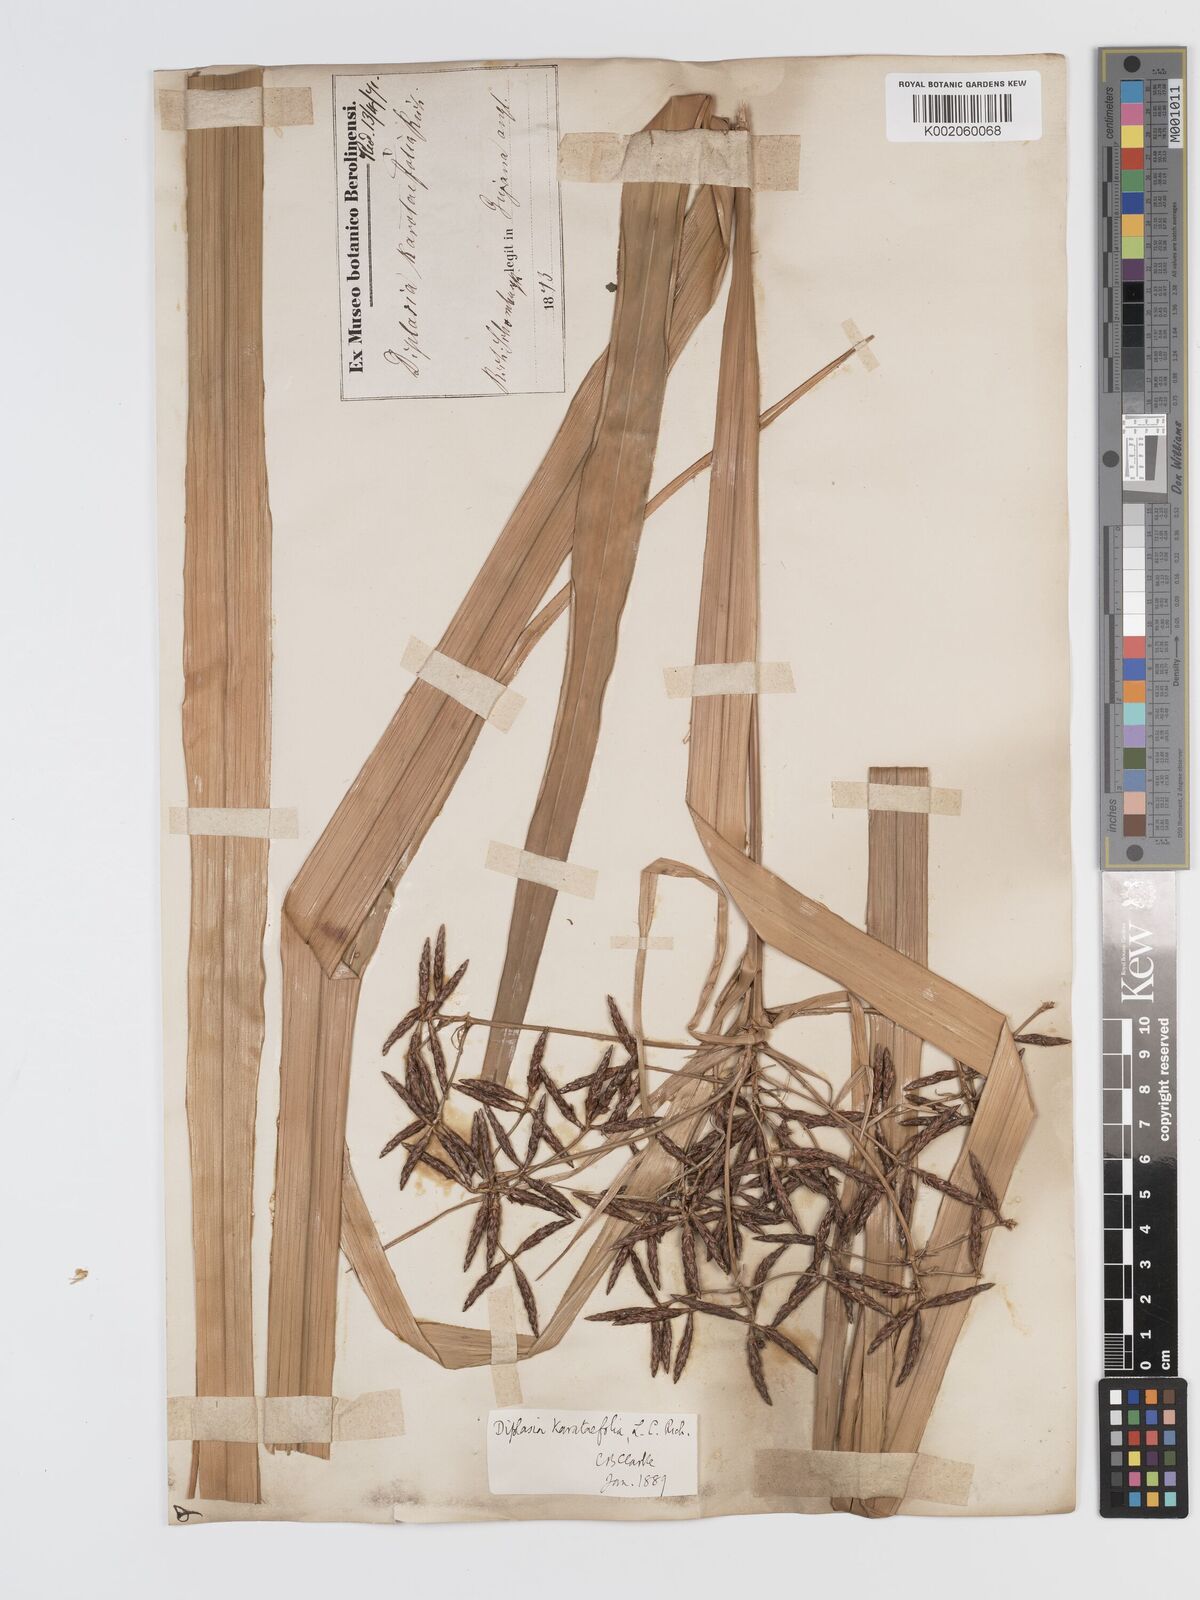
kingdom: Plantae
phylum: Tracheophyta
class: Liliopsida
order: Poales
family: Cyperaceae
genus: Diplasia
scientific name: Diplasia karatifolia
